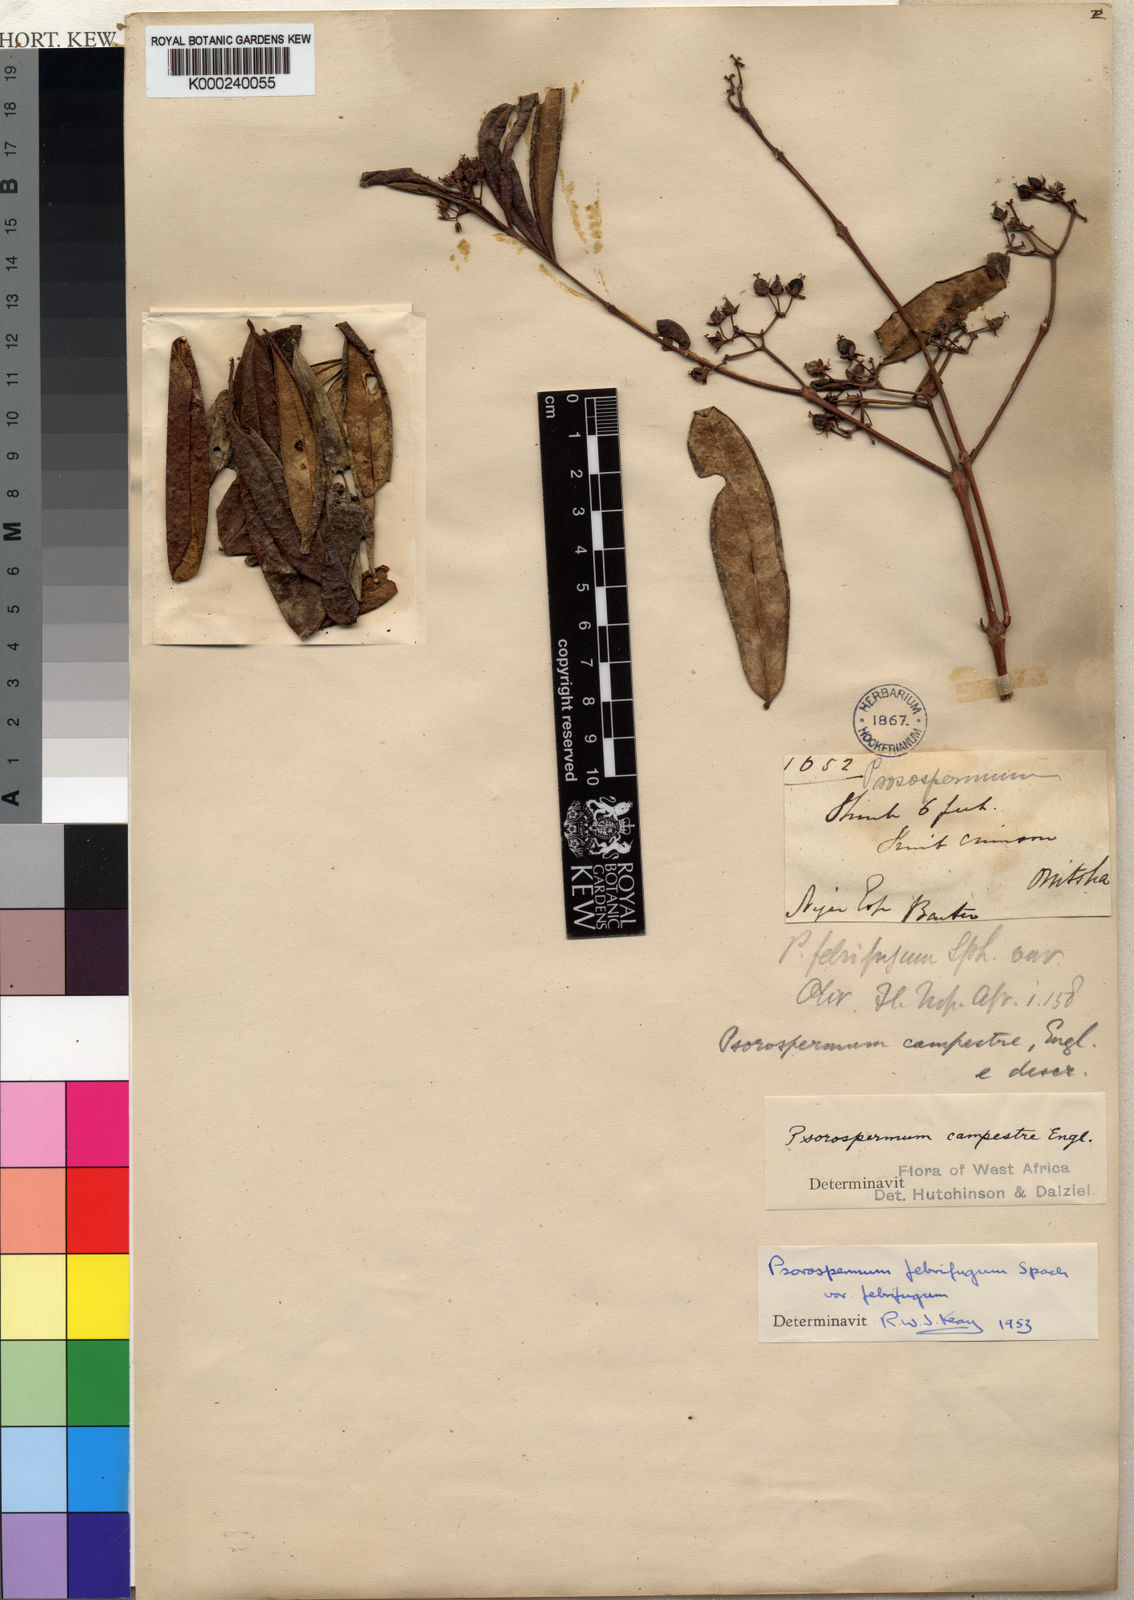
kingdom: Plantae
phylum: Tracheophyta
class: Magnoliopsida
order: Malpighiales
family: Hypericaceae
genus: Psorospermum
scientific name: Psorospermum febrifugum
